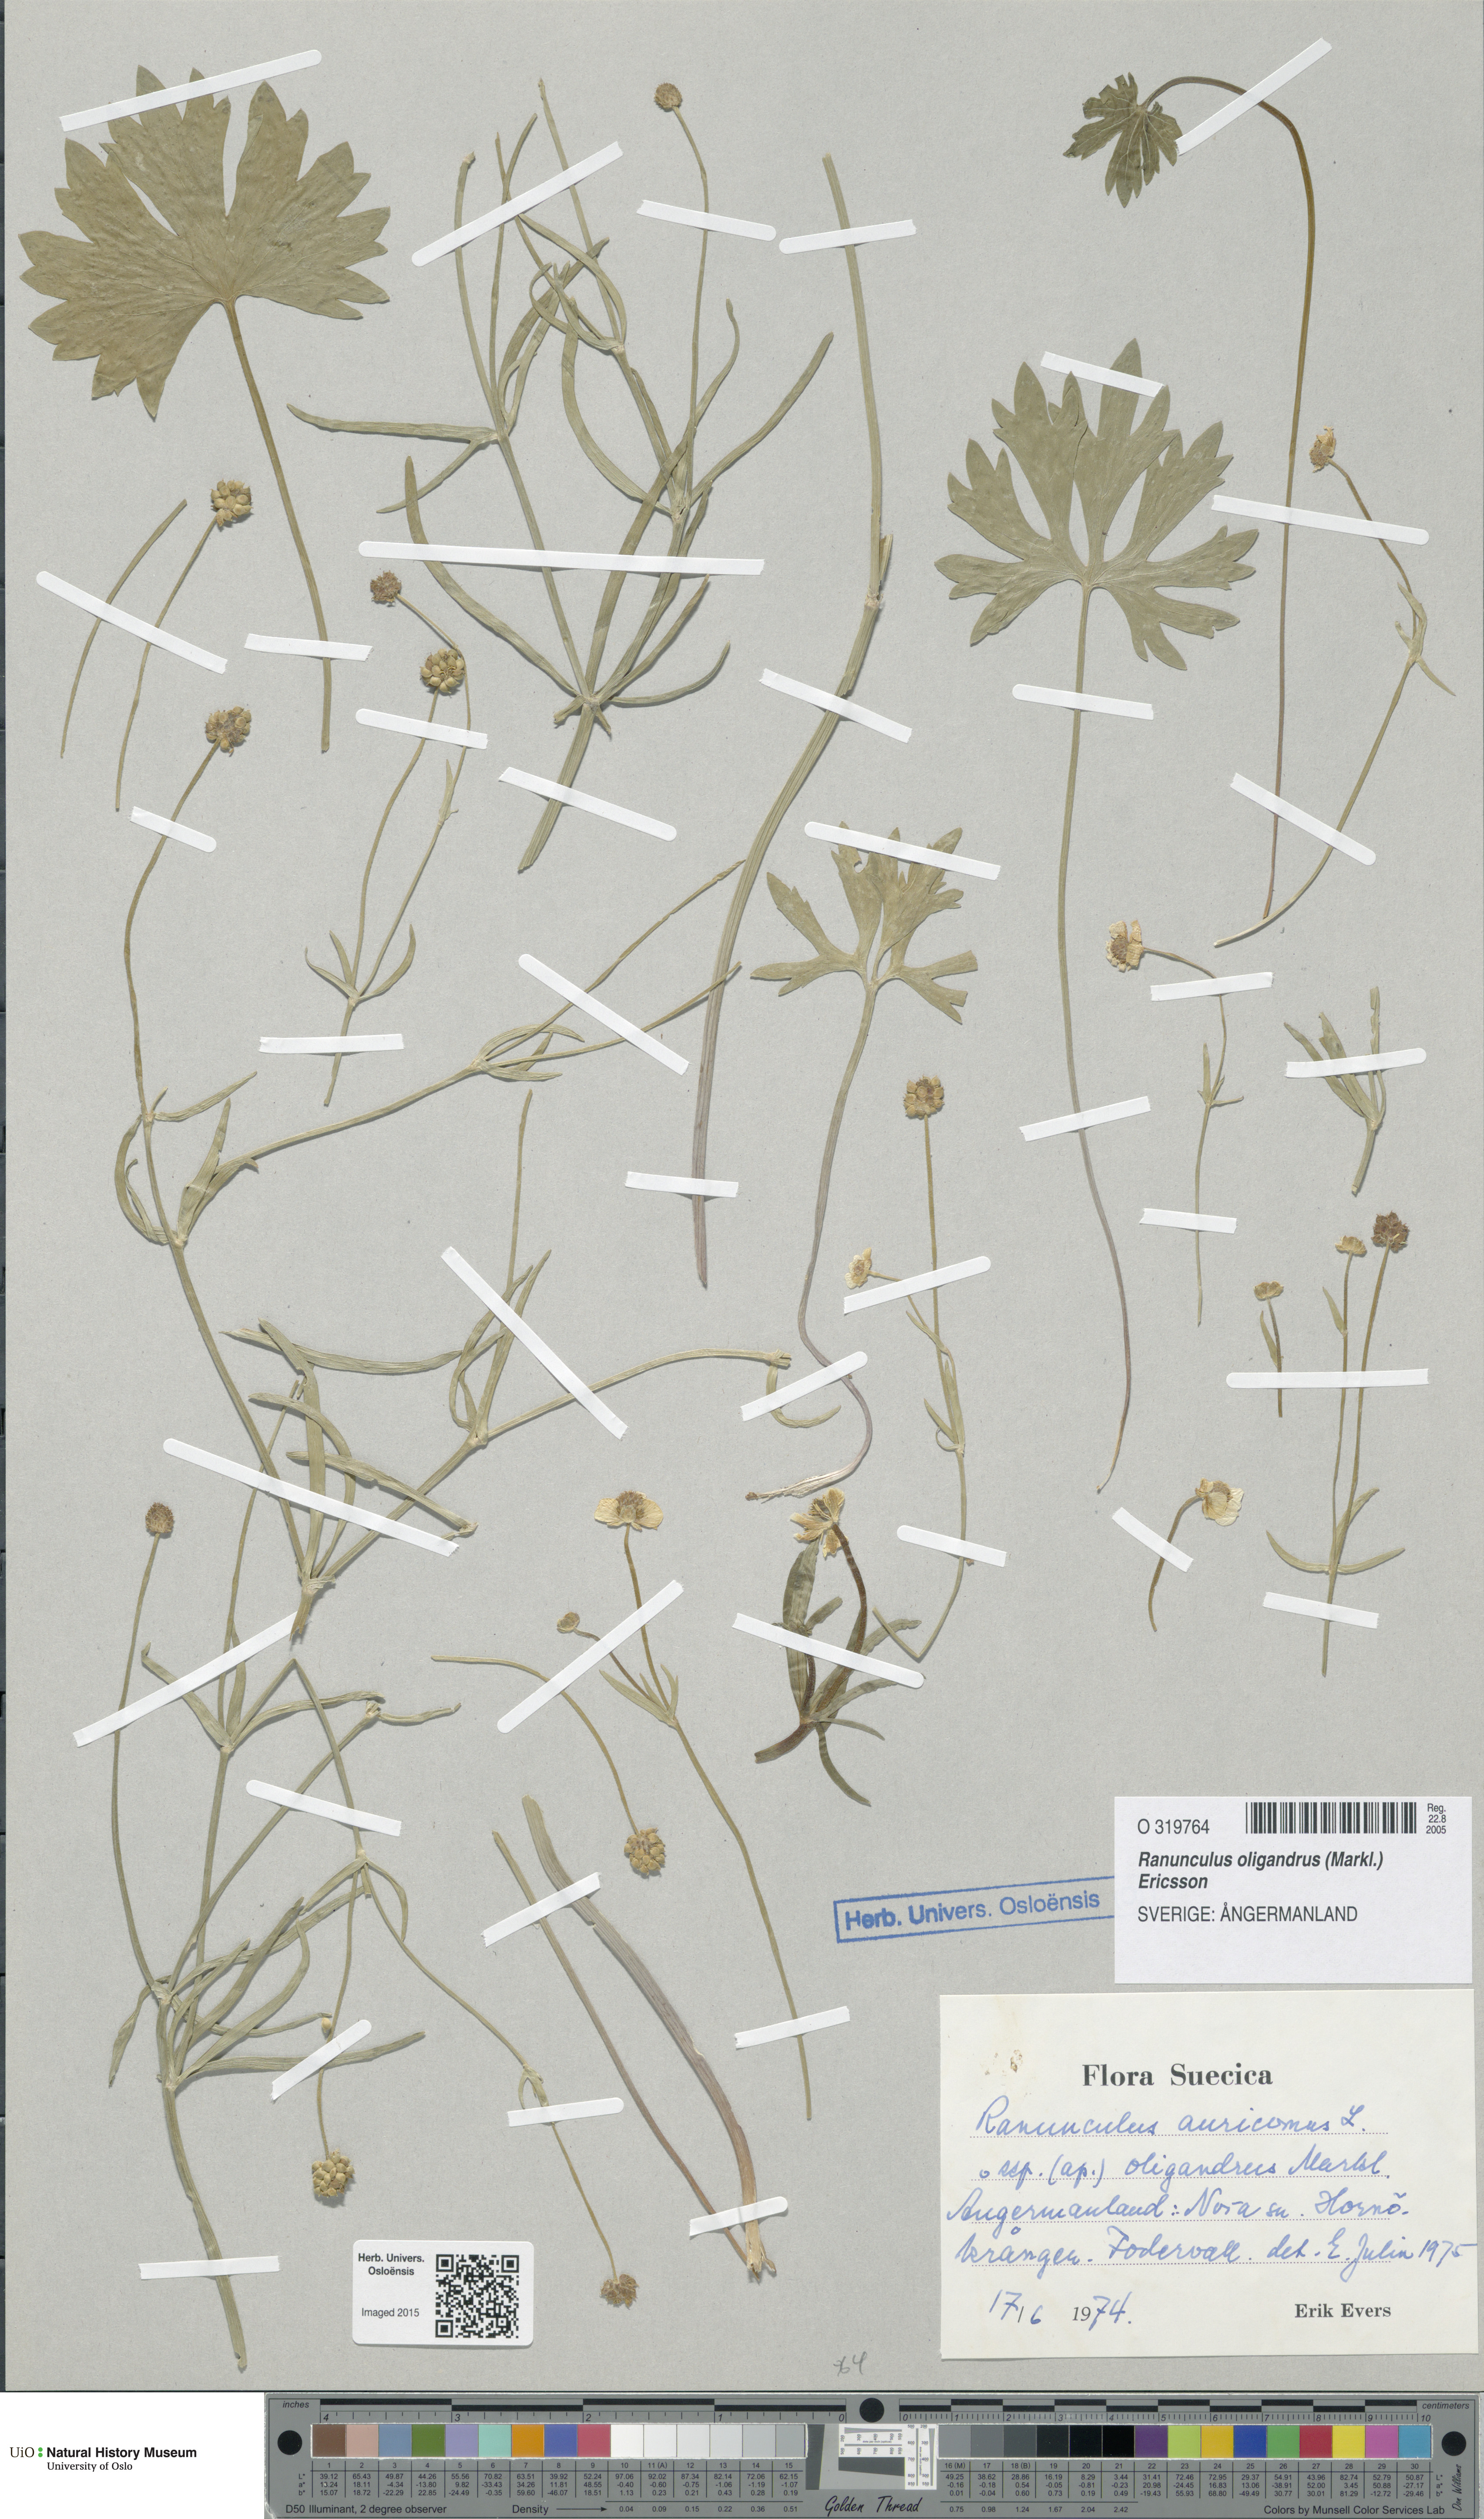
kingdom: Plantae
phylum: Tracheophyta
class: Magnoliopsida
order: Ranunculales
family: Ranunculaceae
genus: Ranunculus
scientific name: Ranunculus oligandrus
